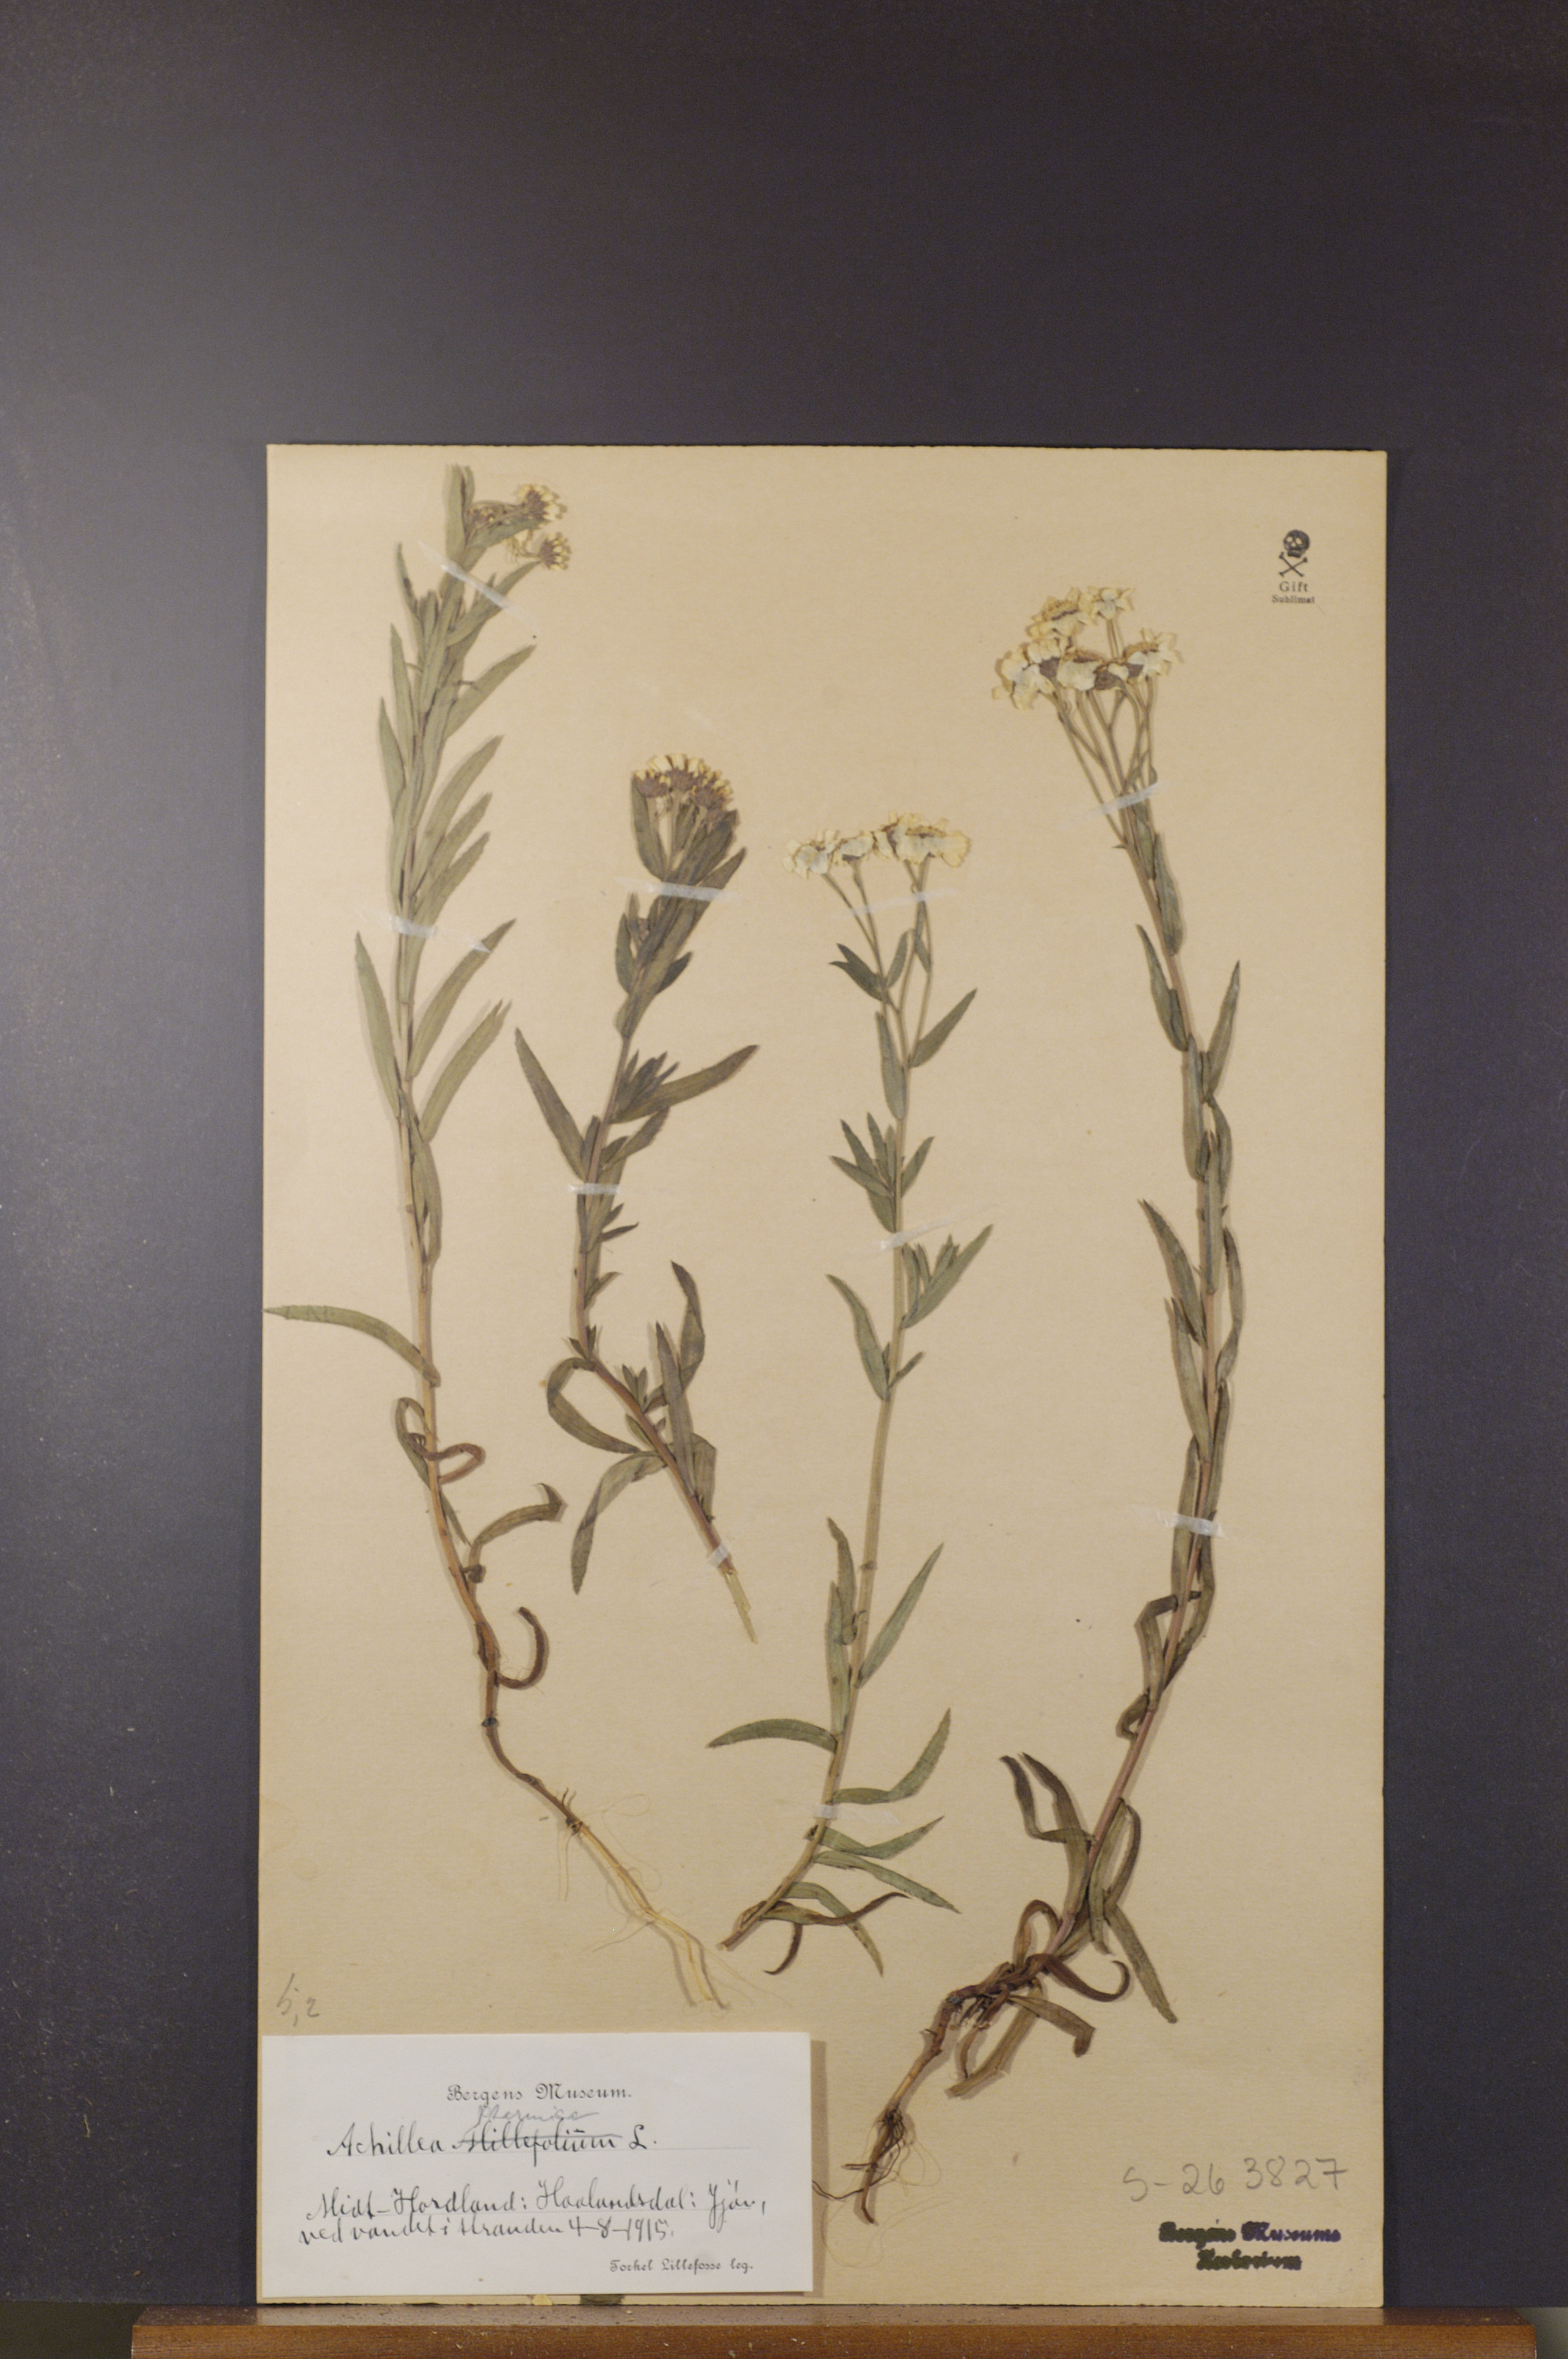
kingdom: Plantae
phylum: Tracheophyta
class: Magnoliopsida
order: Asterales
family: Asteraceae
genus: Achillea
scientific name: Achillea ptarmica
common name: Sneezeweed
